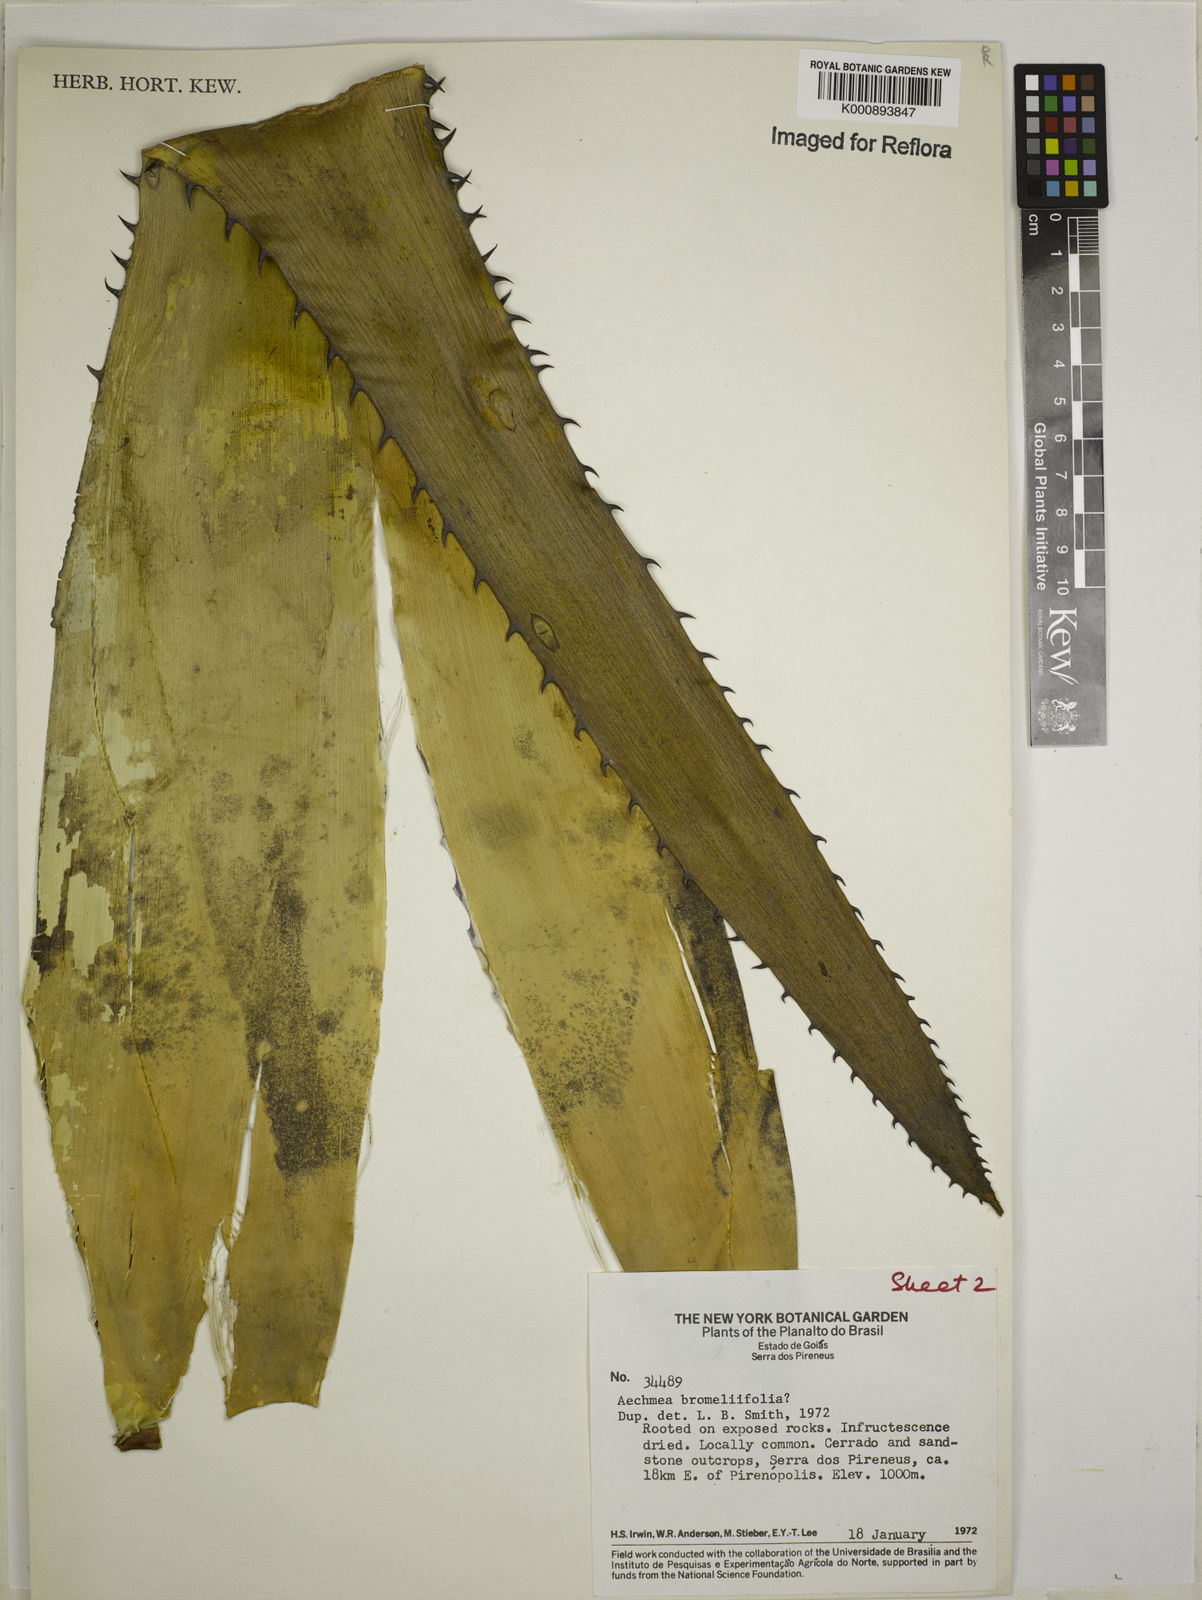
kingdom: Plantae
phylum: Tracheophyta
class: Liliopsida
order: Poales
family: Bromeliaceae
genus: Aechmea
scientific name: Aechmea
